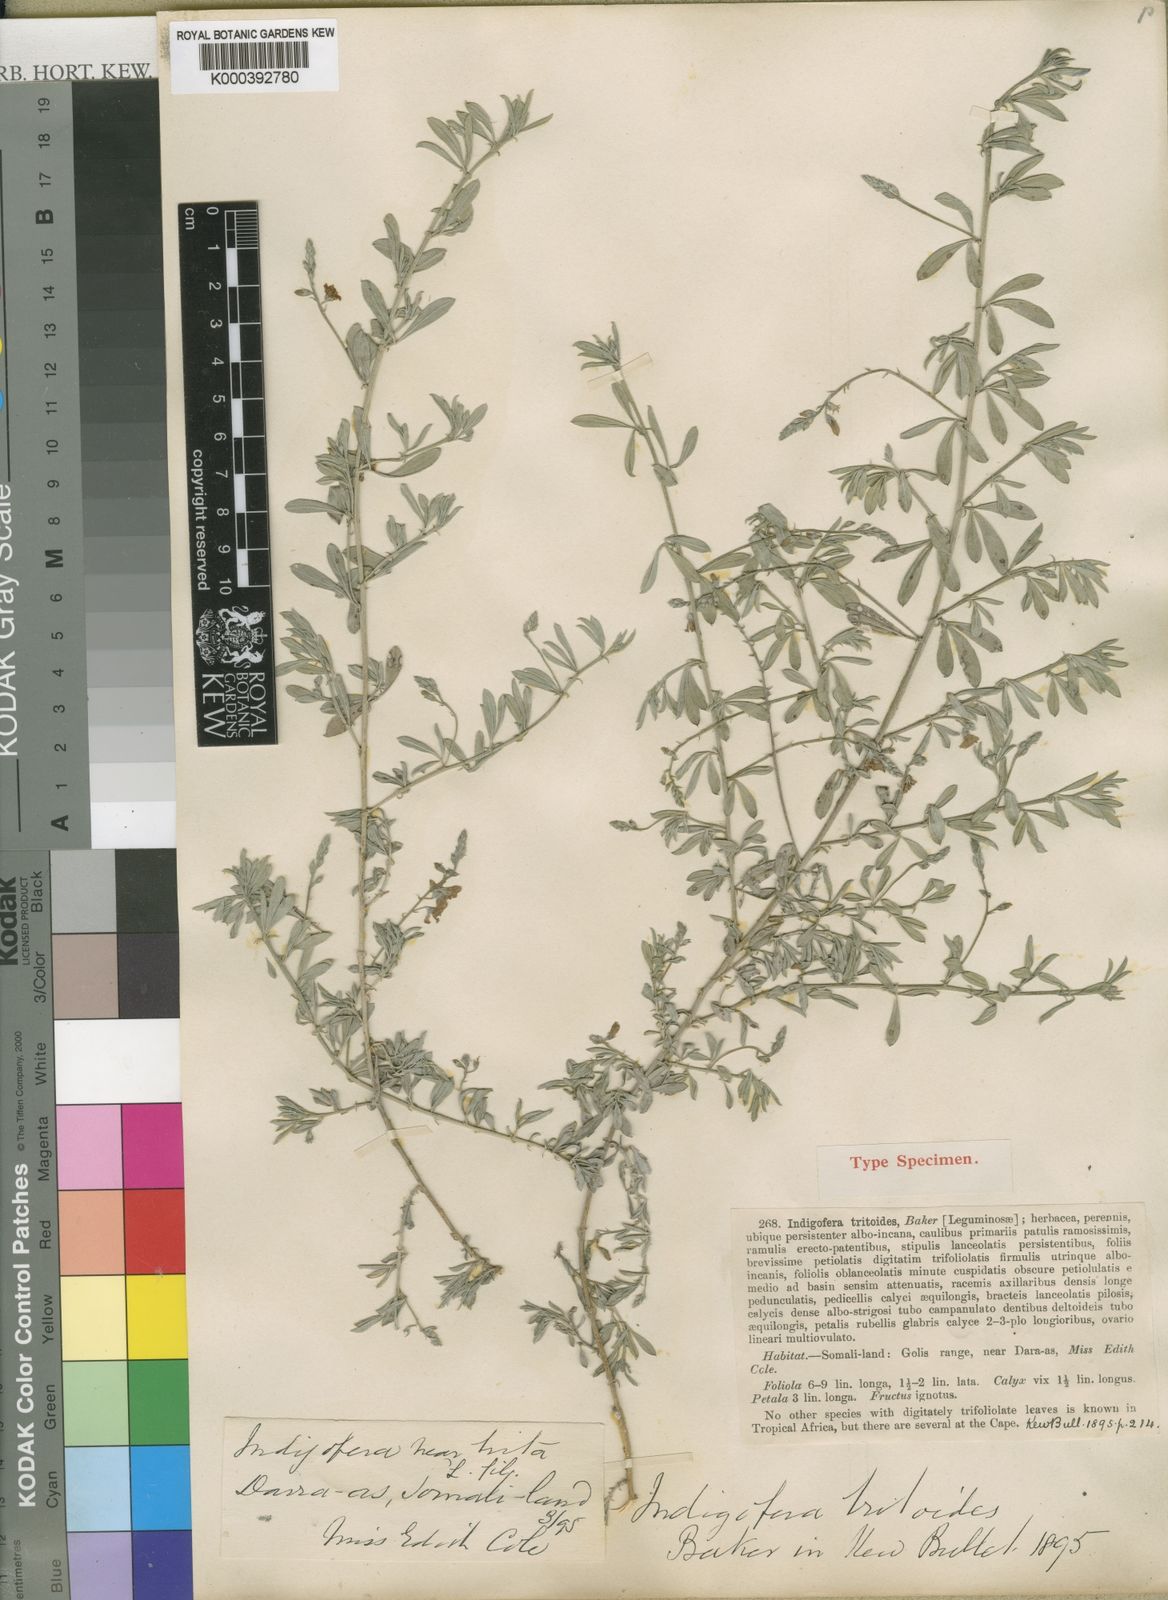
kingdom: Plantae
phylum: Tracheophyta
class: Magnoliopsida
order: Fabales
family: Fabaceae
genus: Microcharis
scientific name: Microcharis tritoides
